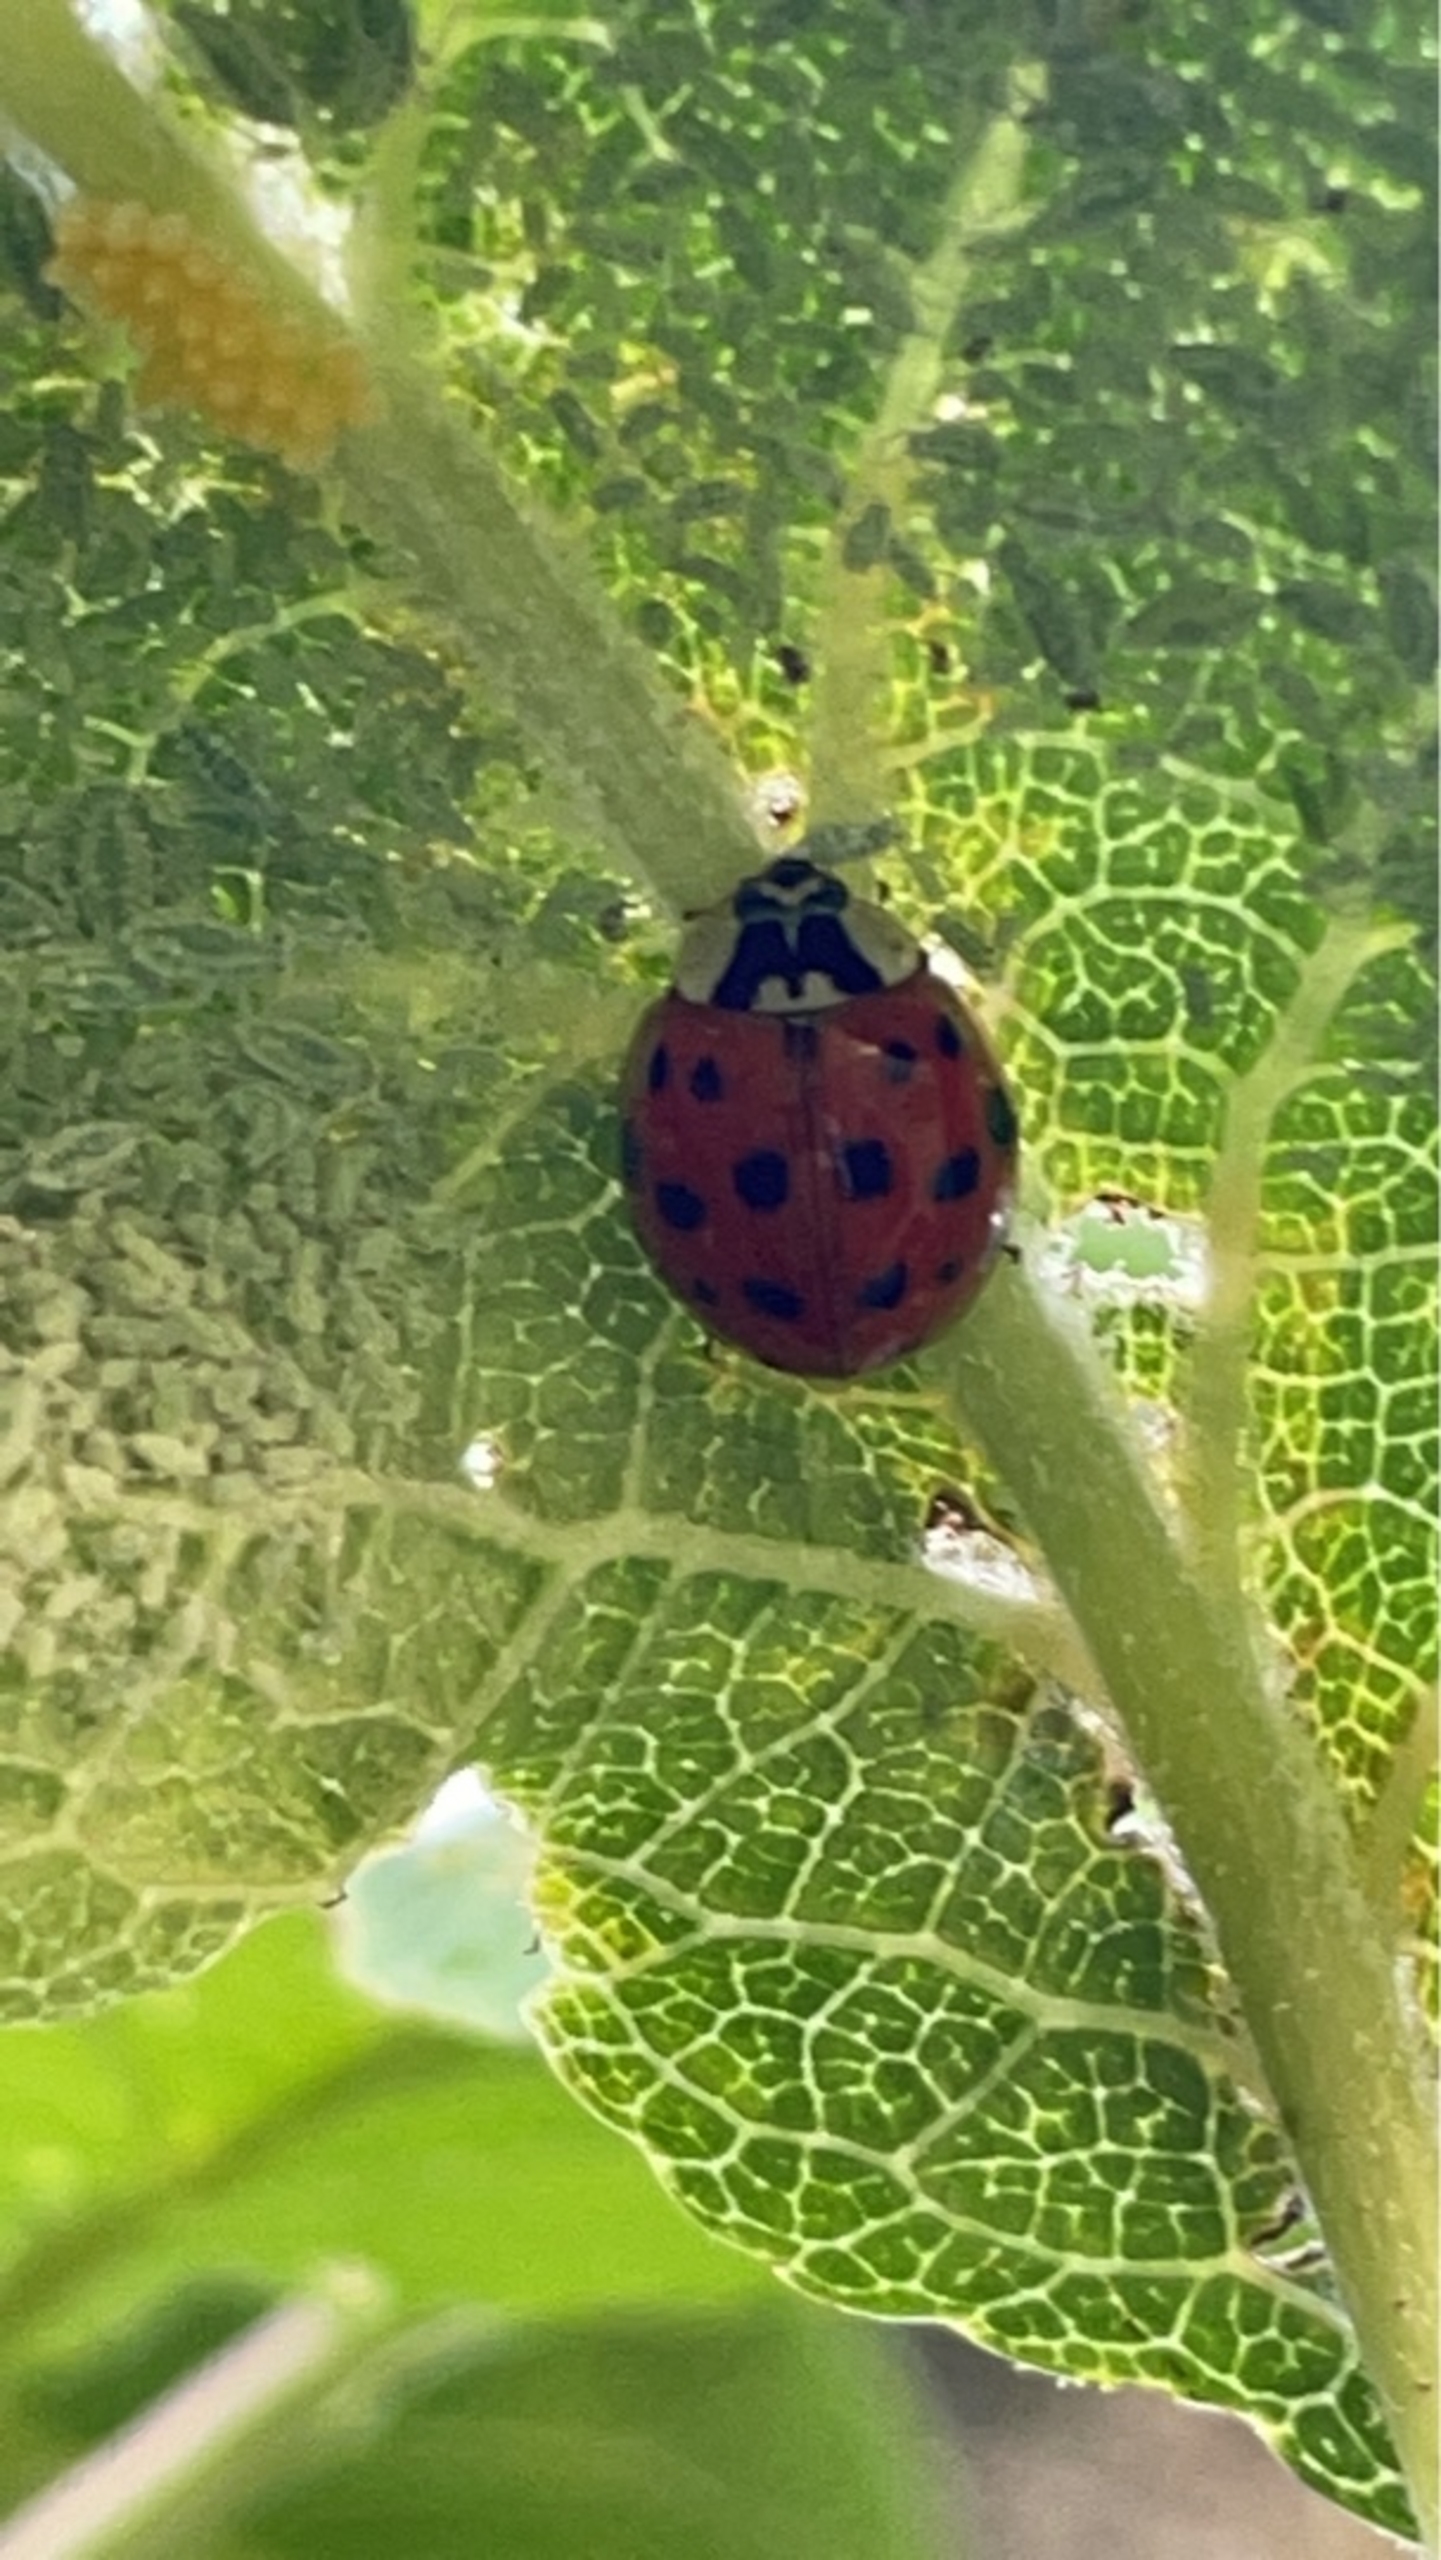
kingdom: Animalia
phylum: Arthropoda
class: Insecta
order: Coleoptera
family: Coccinellidae
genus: Harmonia
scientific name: Harmonia axyridis
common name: Harlekinmariehøne
